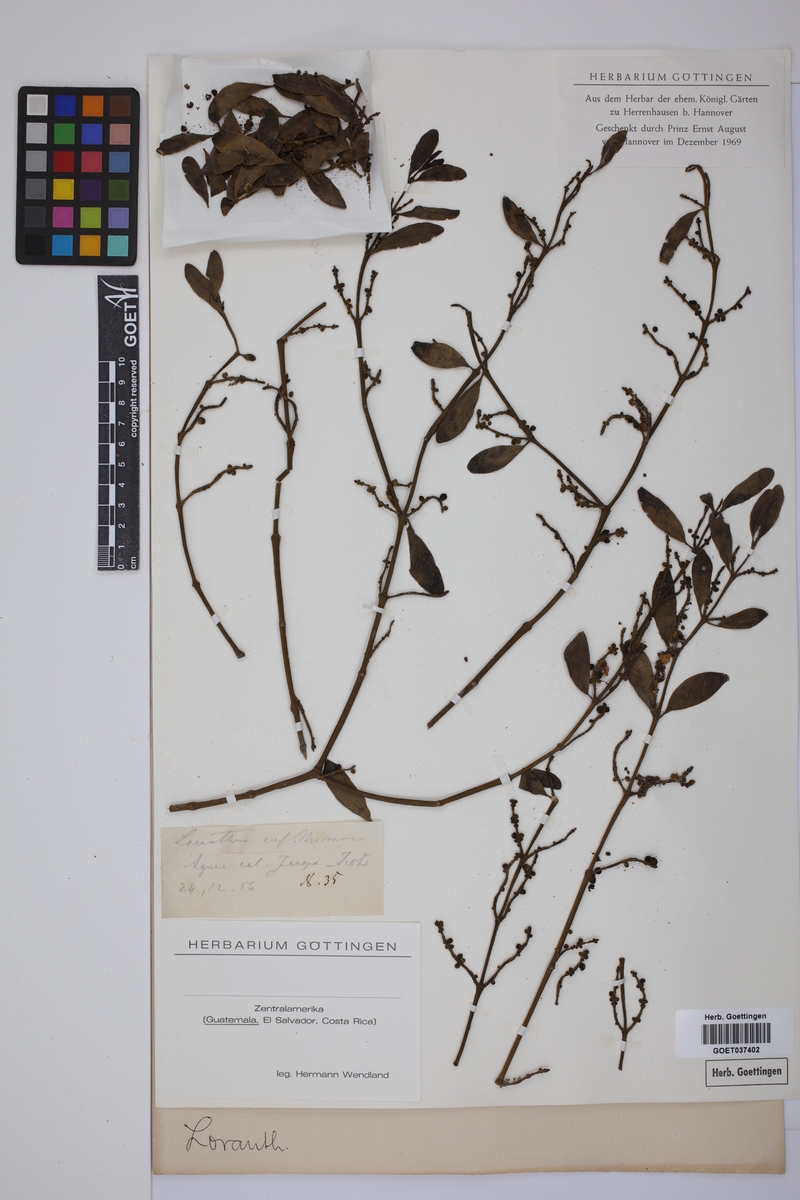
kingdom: Plantae
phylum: Tracheophyta
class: Magnoliopsida
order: Santalales
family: Loranthaceae
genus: Loranthus
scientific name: Loranthus
